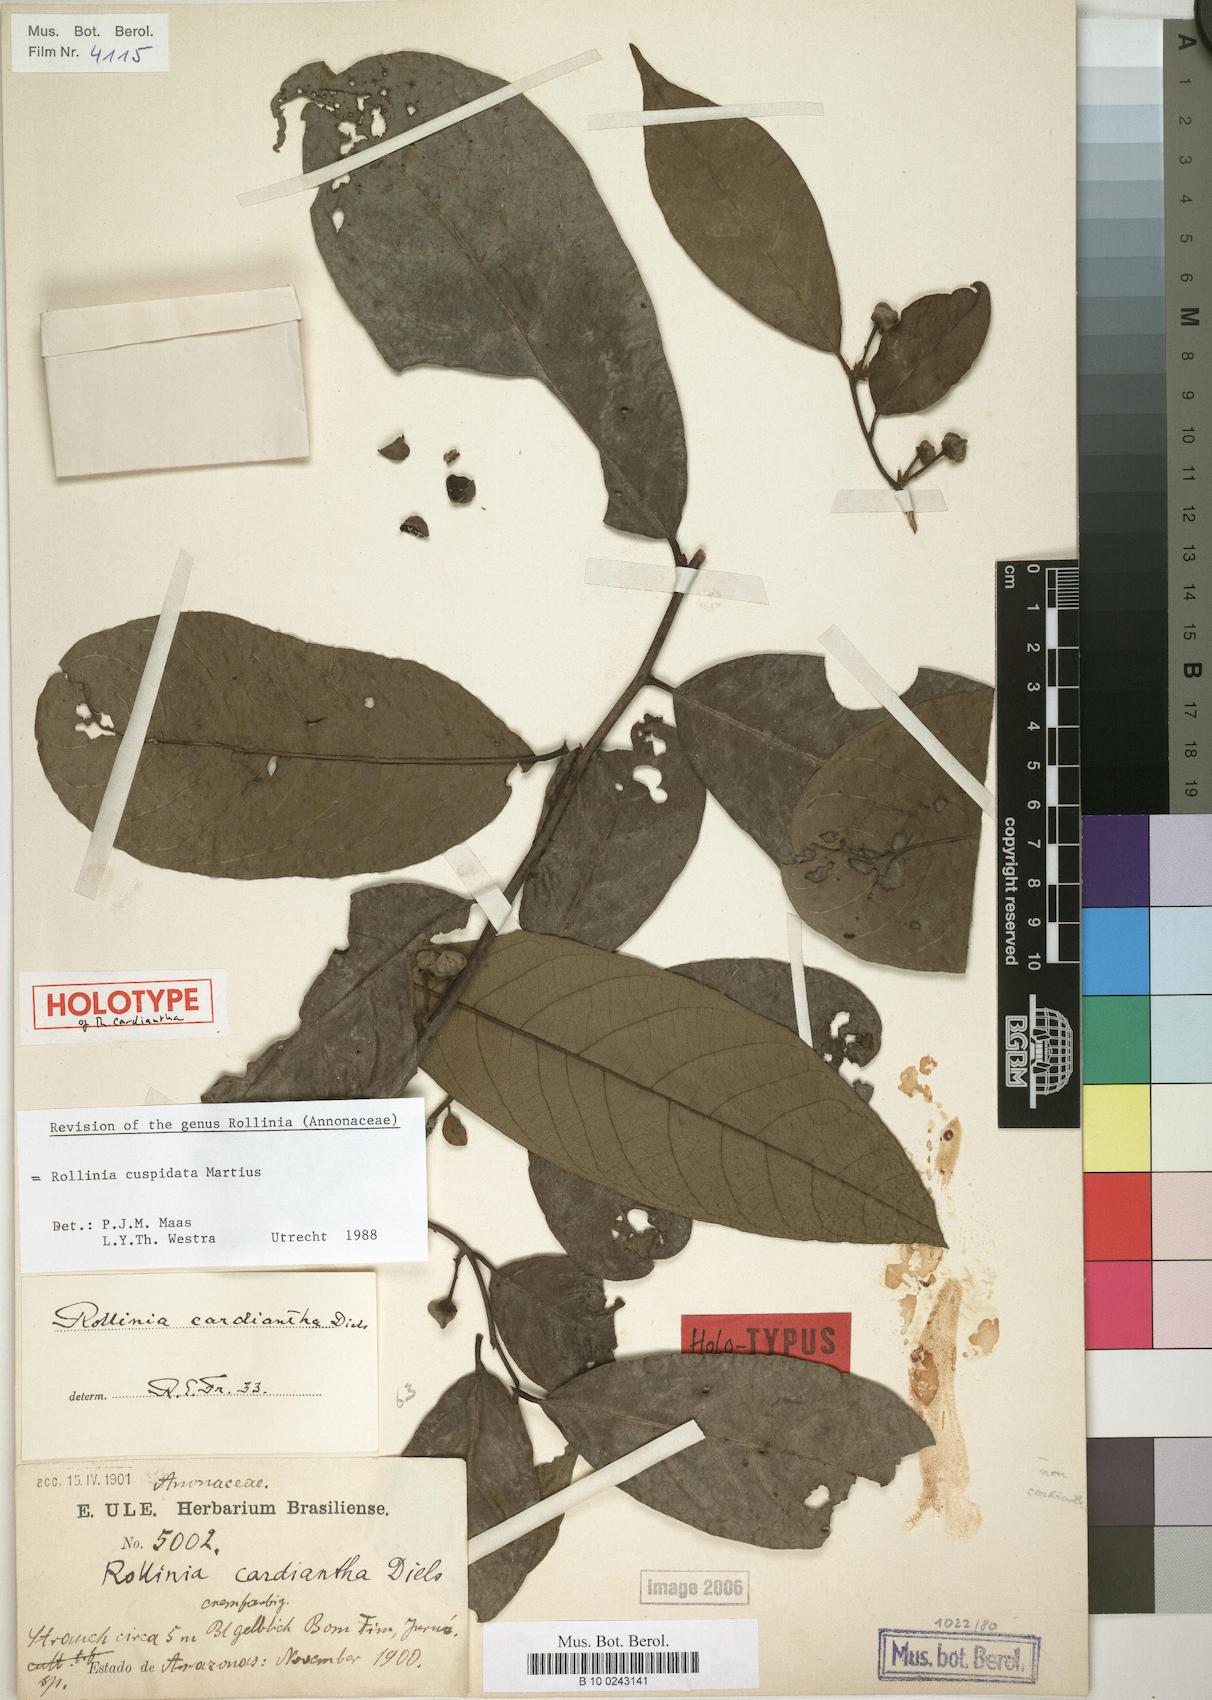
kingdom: Plantae
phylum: Tracheophyta
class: Magnoliopsida
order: Magnoliales
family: Annonaceae
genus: Annona
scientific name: Annona cuspidata
